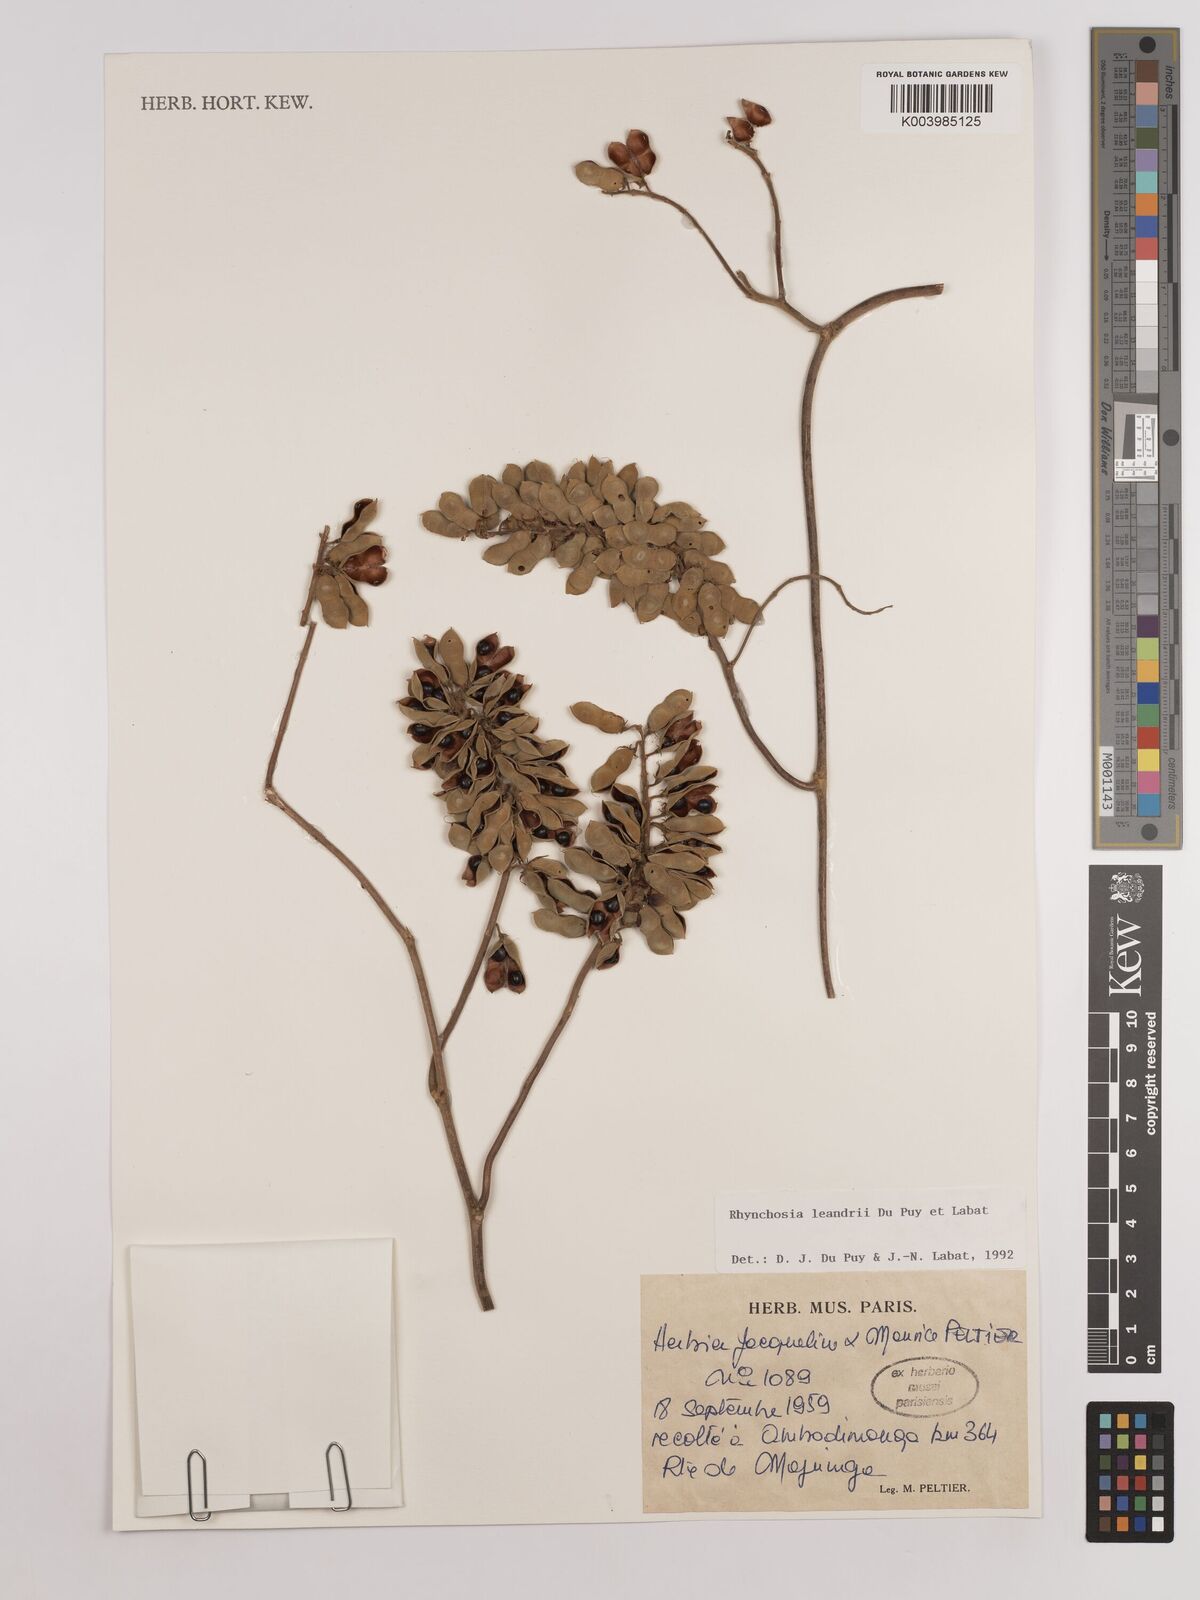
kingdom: Plantae
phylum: Tracheophyta
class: Magnoliopsida
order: Fabales
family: Fabaceae
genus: Rhynchosia
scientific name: Rhynchosia leandrii
